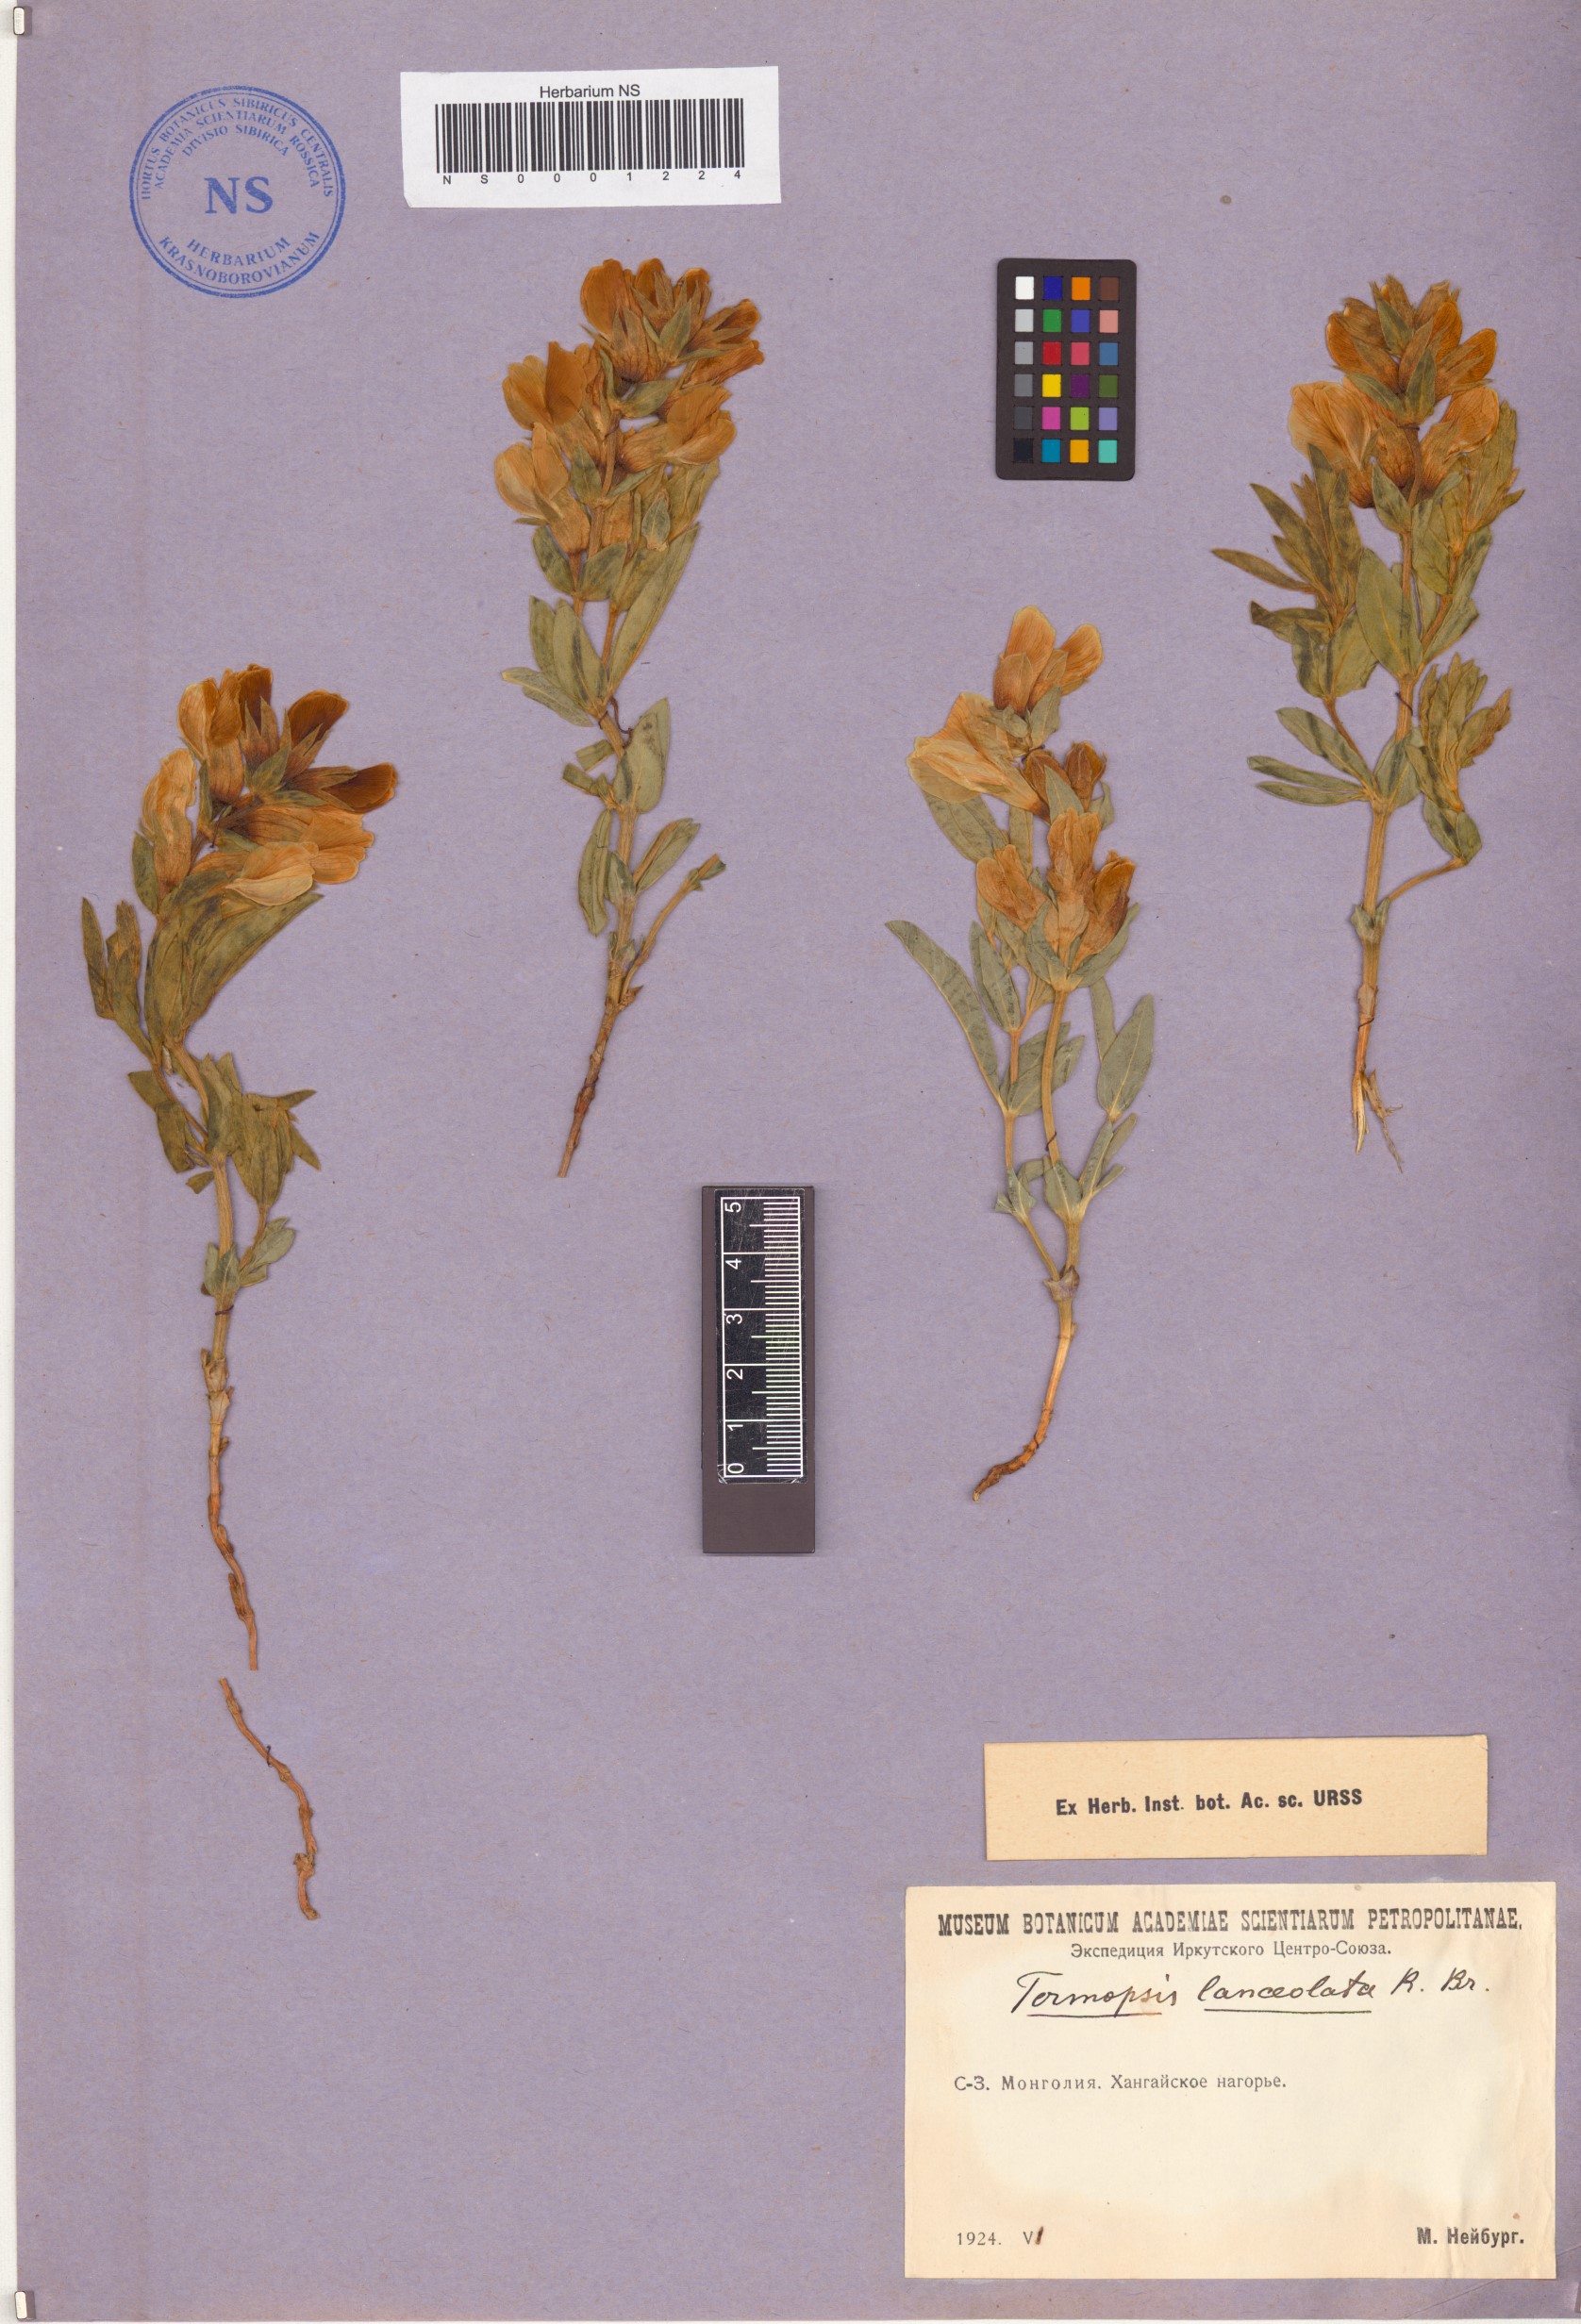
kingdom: Plantae
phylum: Tracheophyta
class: Magnoliopsida
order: Fabales
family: Fabaceae
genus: Thermopsis
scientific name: Thermopsis lanceolata
